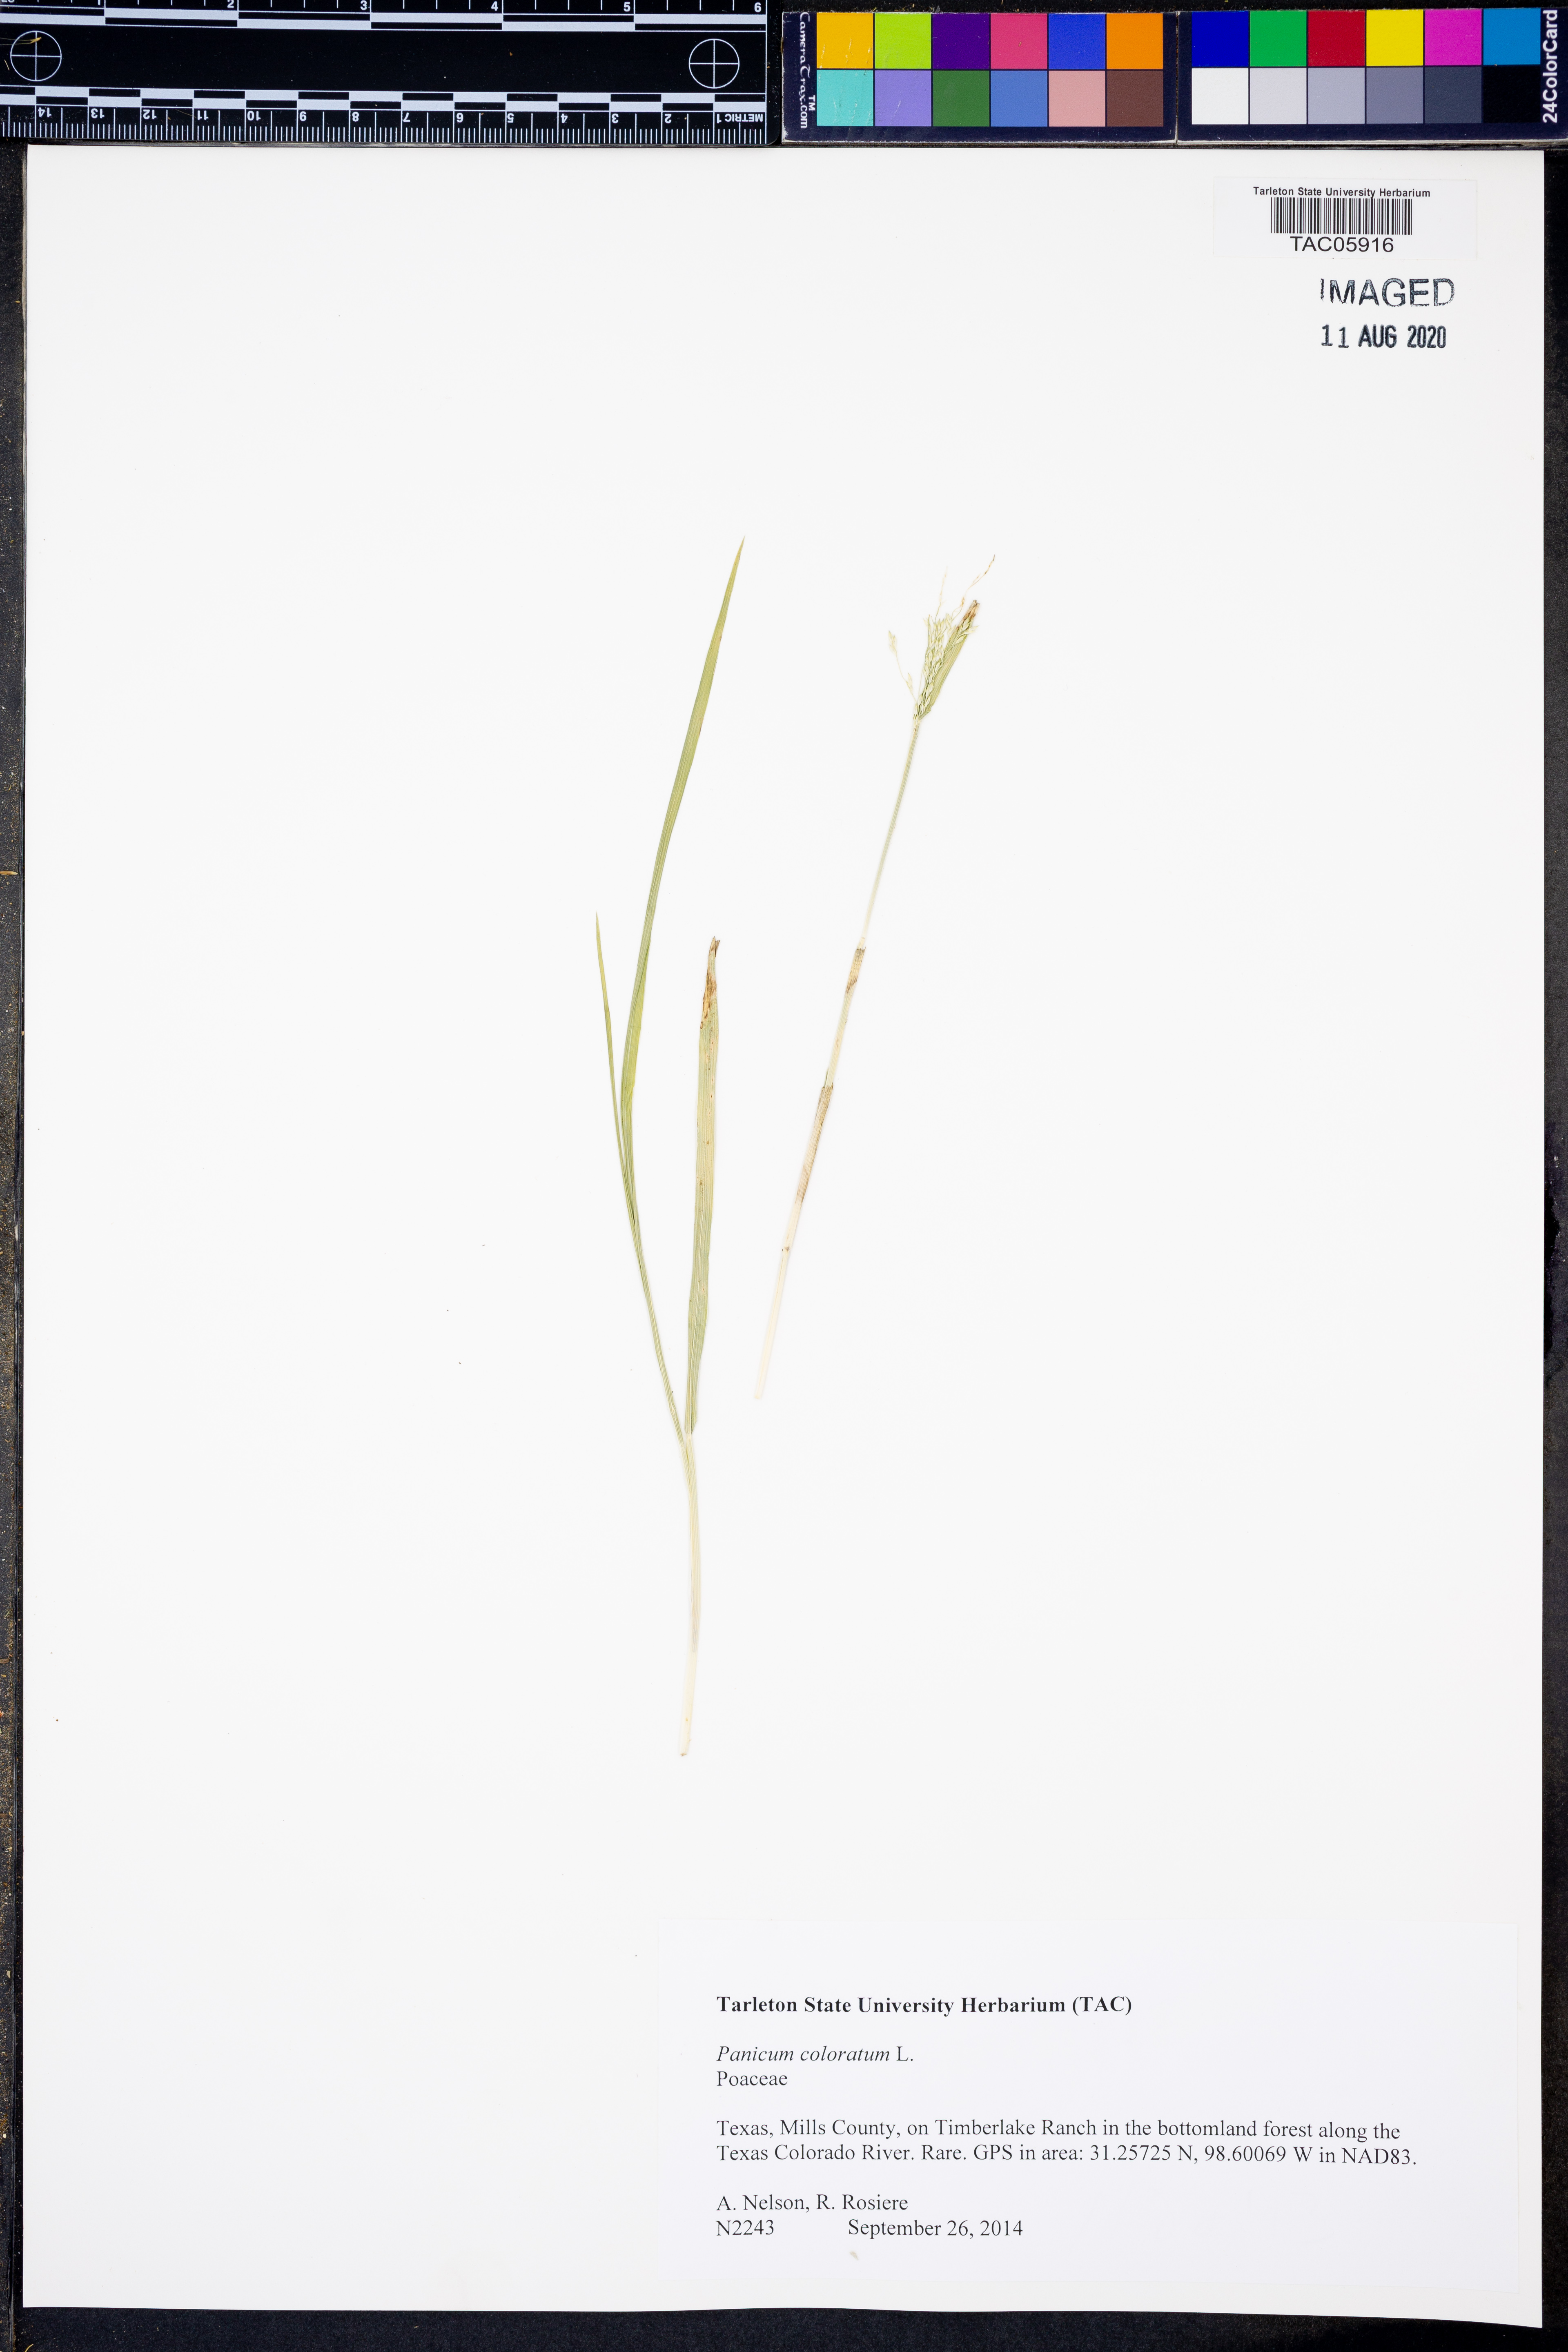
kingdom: Plantae
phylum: Tracheophyta
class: Liliopsida
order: Poales
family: Poaceae
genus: Panicum
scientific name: Panicum coloratum
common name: Kleingrass
